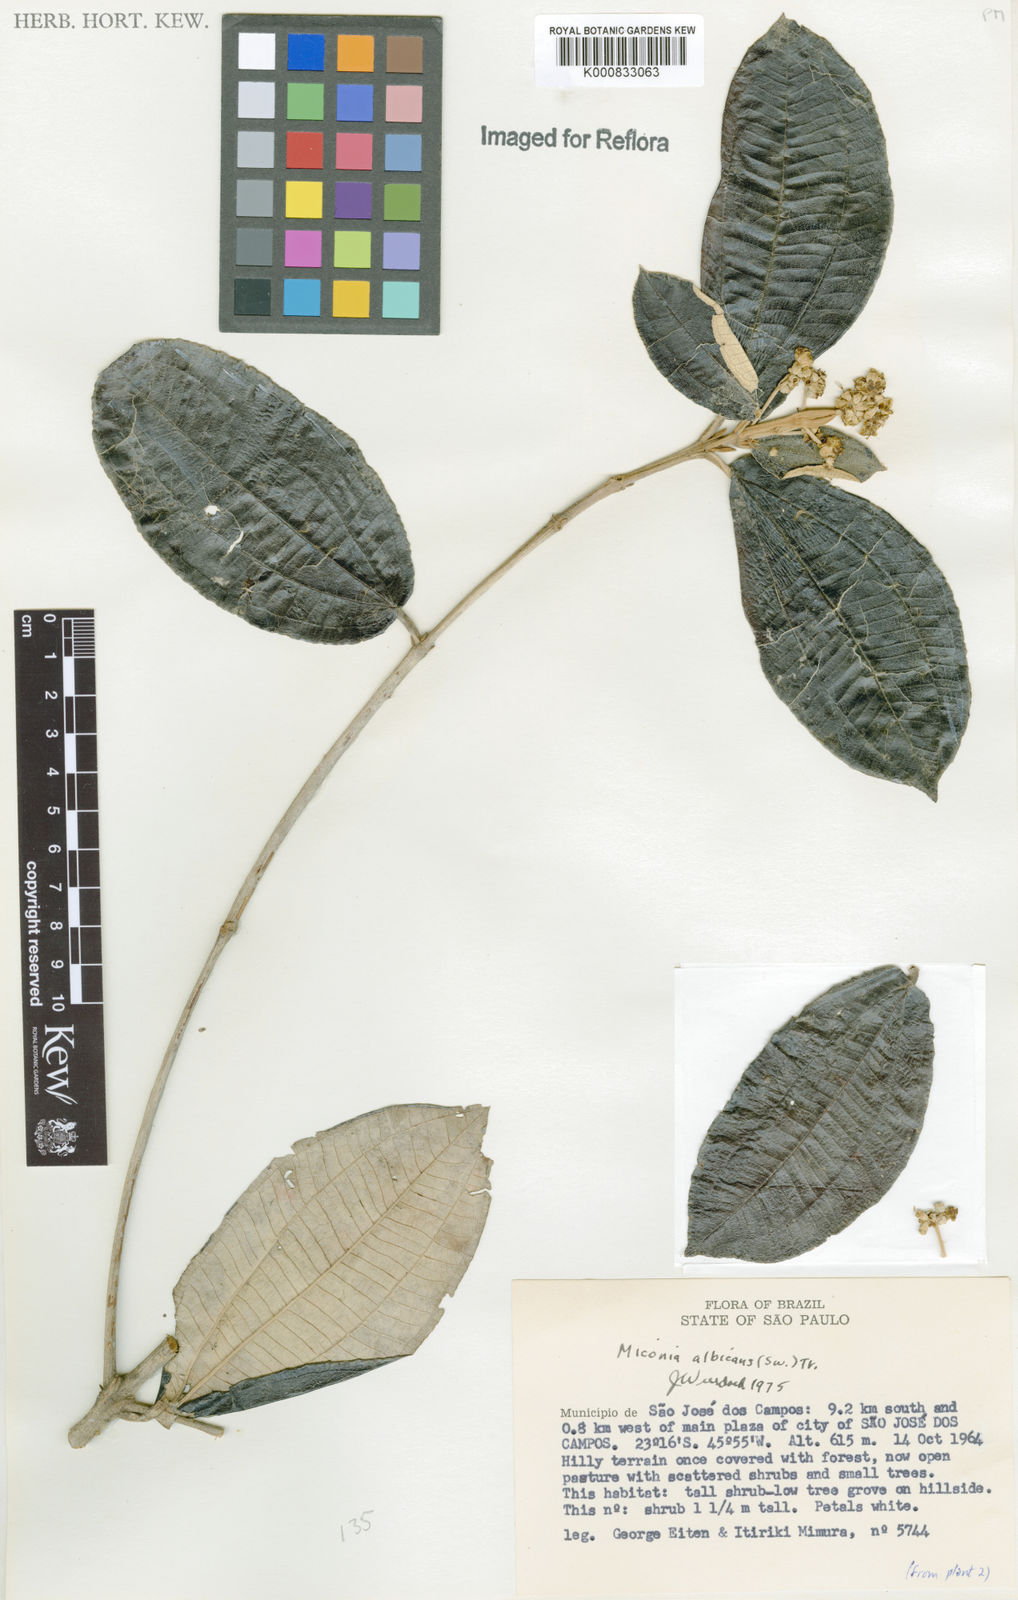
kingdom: Plantae
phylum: Tracheophyta
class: Magnoliopsida
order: Myrtales
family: Melastomataceae
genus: Miconia
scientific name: Miconia albicans
